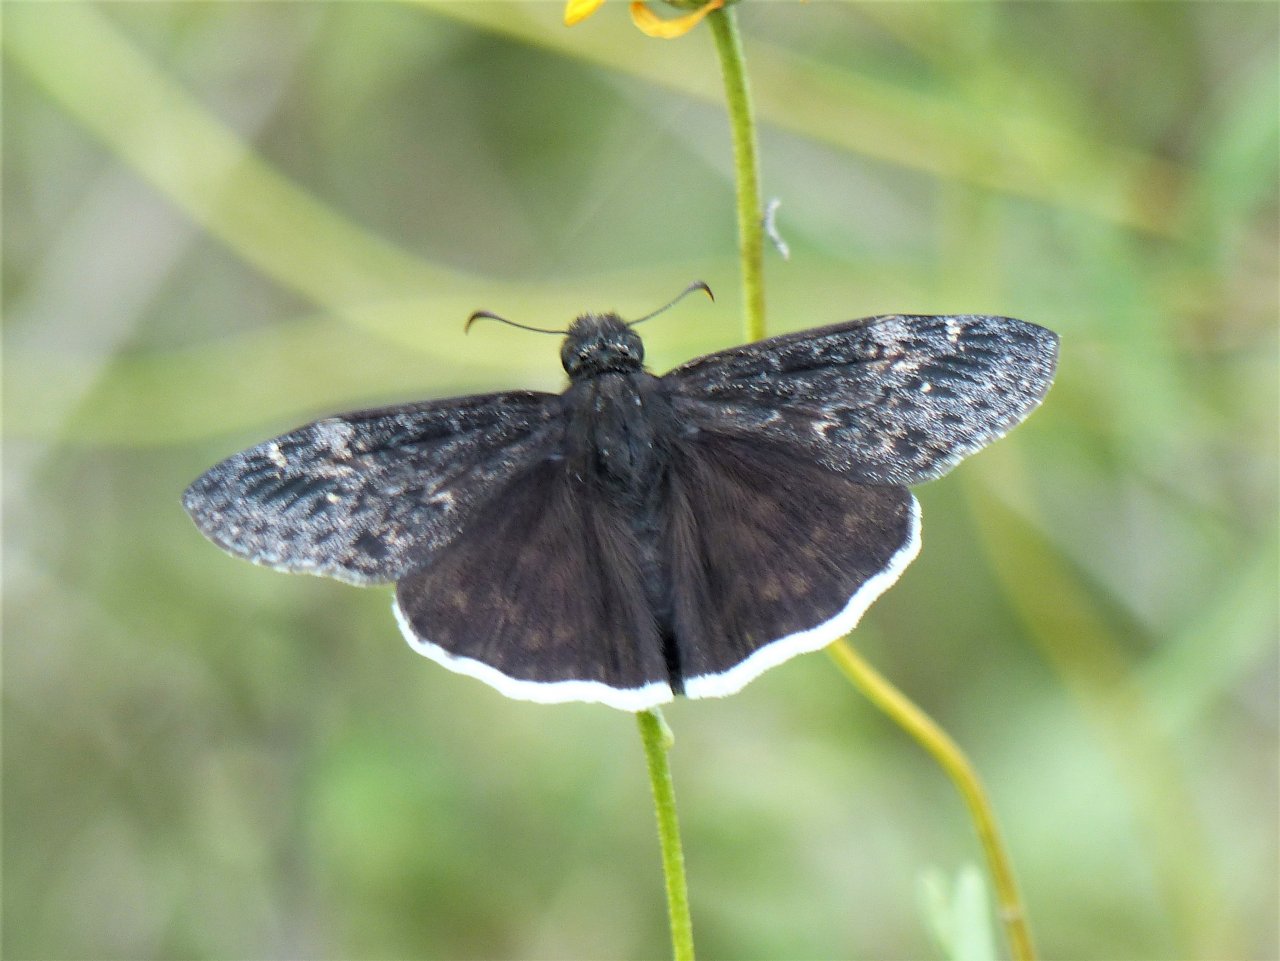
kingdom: Animalia
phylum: Arthropoda
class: Insecta
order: Lepidoptera
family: Hesperiidae
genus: Erynnis
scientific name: Erynnis funeralis
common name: Funereal Duskywing
